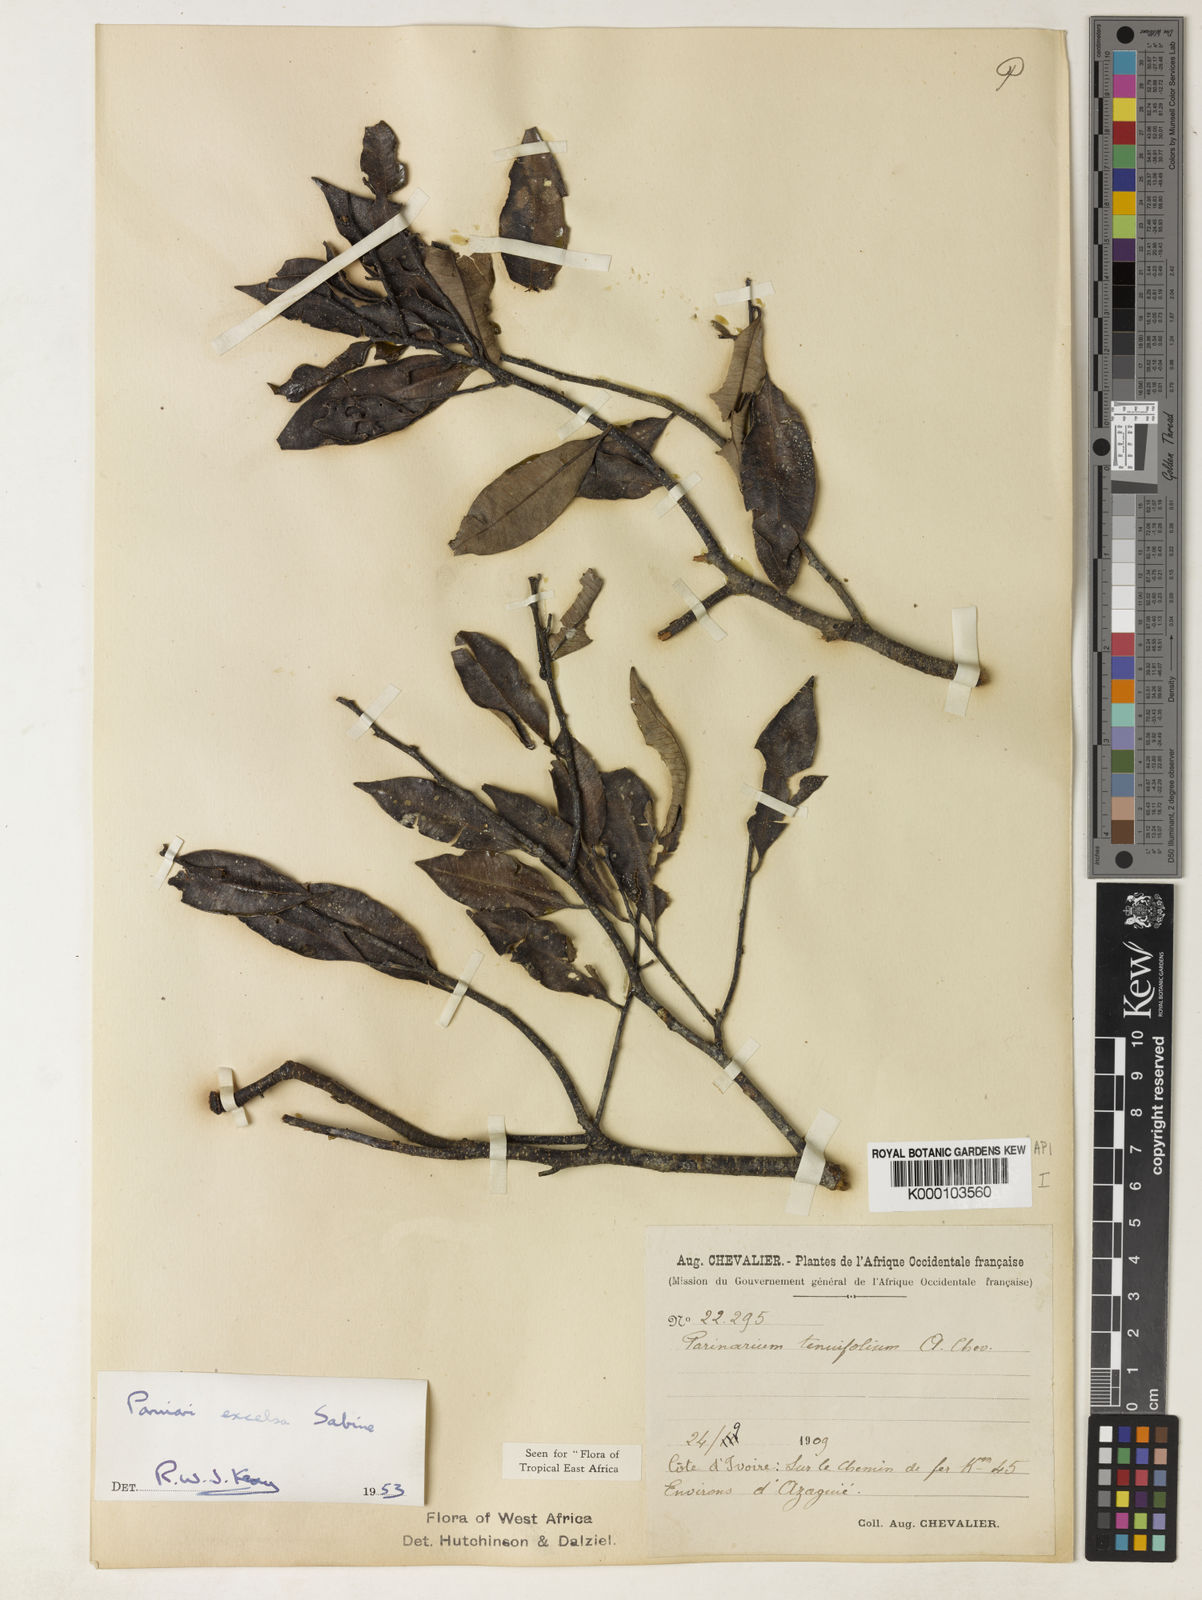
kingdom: Plantae
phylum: Tracheophyta
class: Magnoliopsida
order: Malpighiales
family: Chrysobalanaceae
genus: Parinari
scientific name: Parinari excelsa
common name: Guinea-plum
